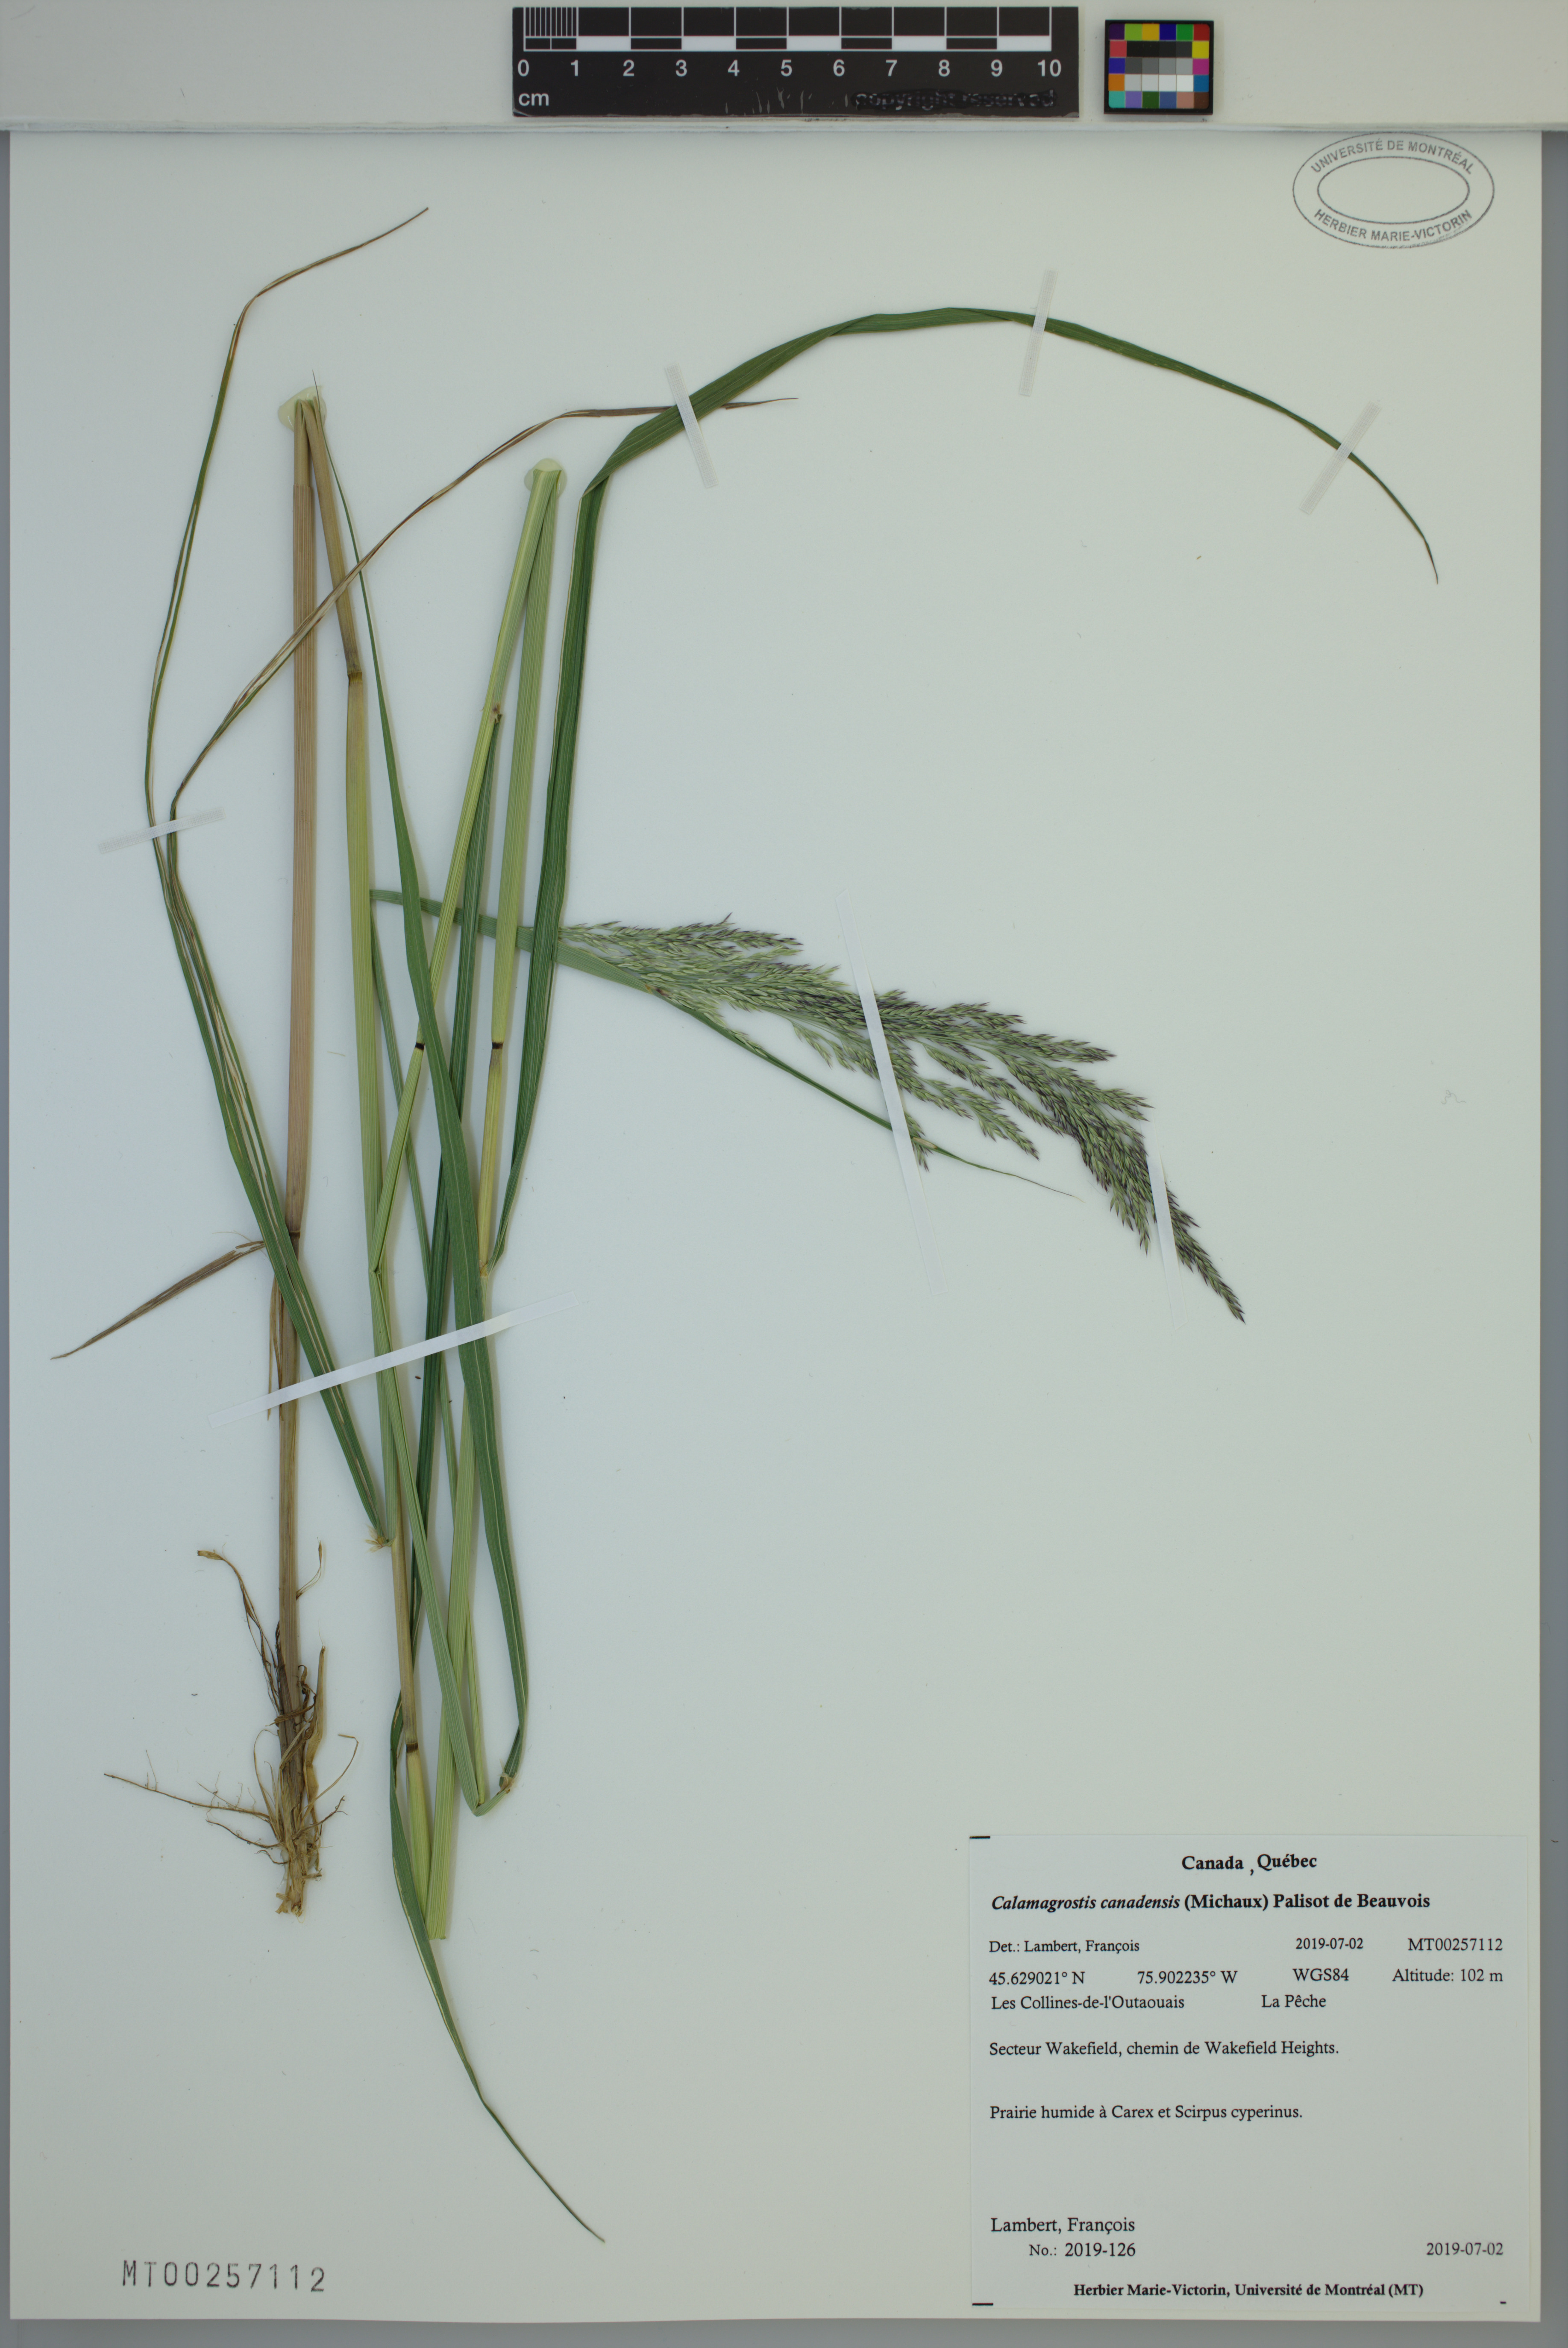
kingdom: Plantae
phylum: Tracheophyta
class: Liliopsida
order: Poales
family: Poaceae
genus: Calamagrostis
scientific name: Calamagrostis canadensis
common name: Canada bluejoint
